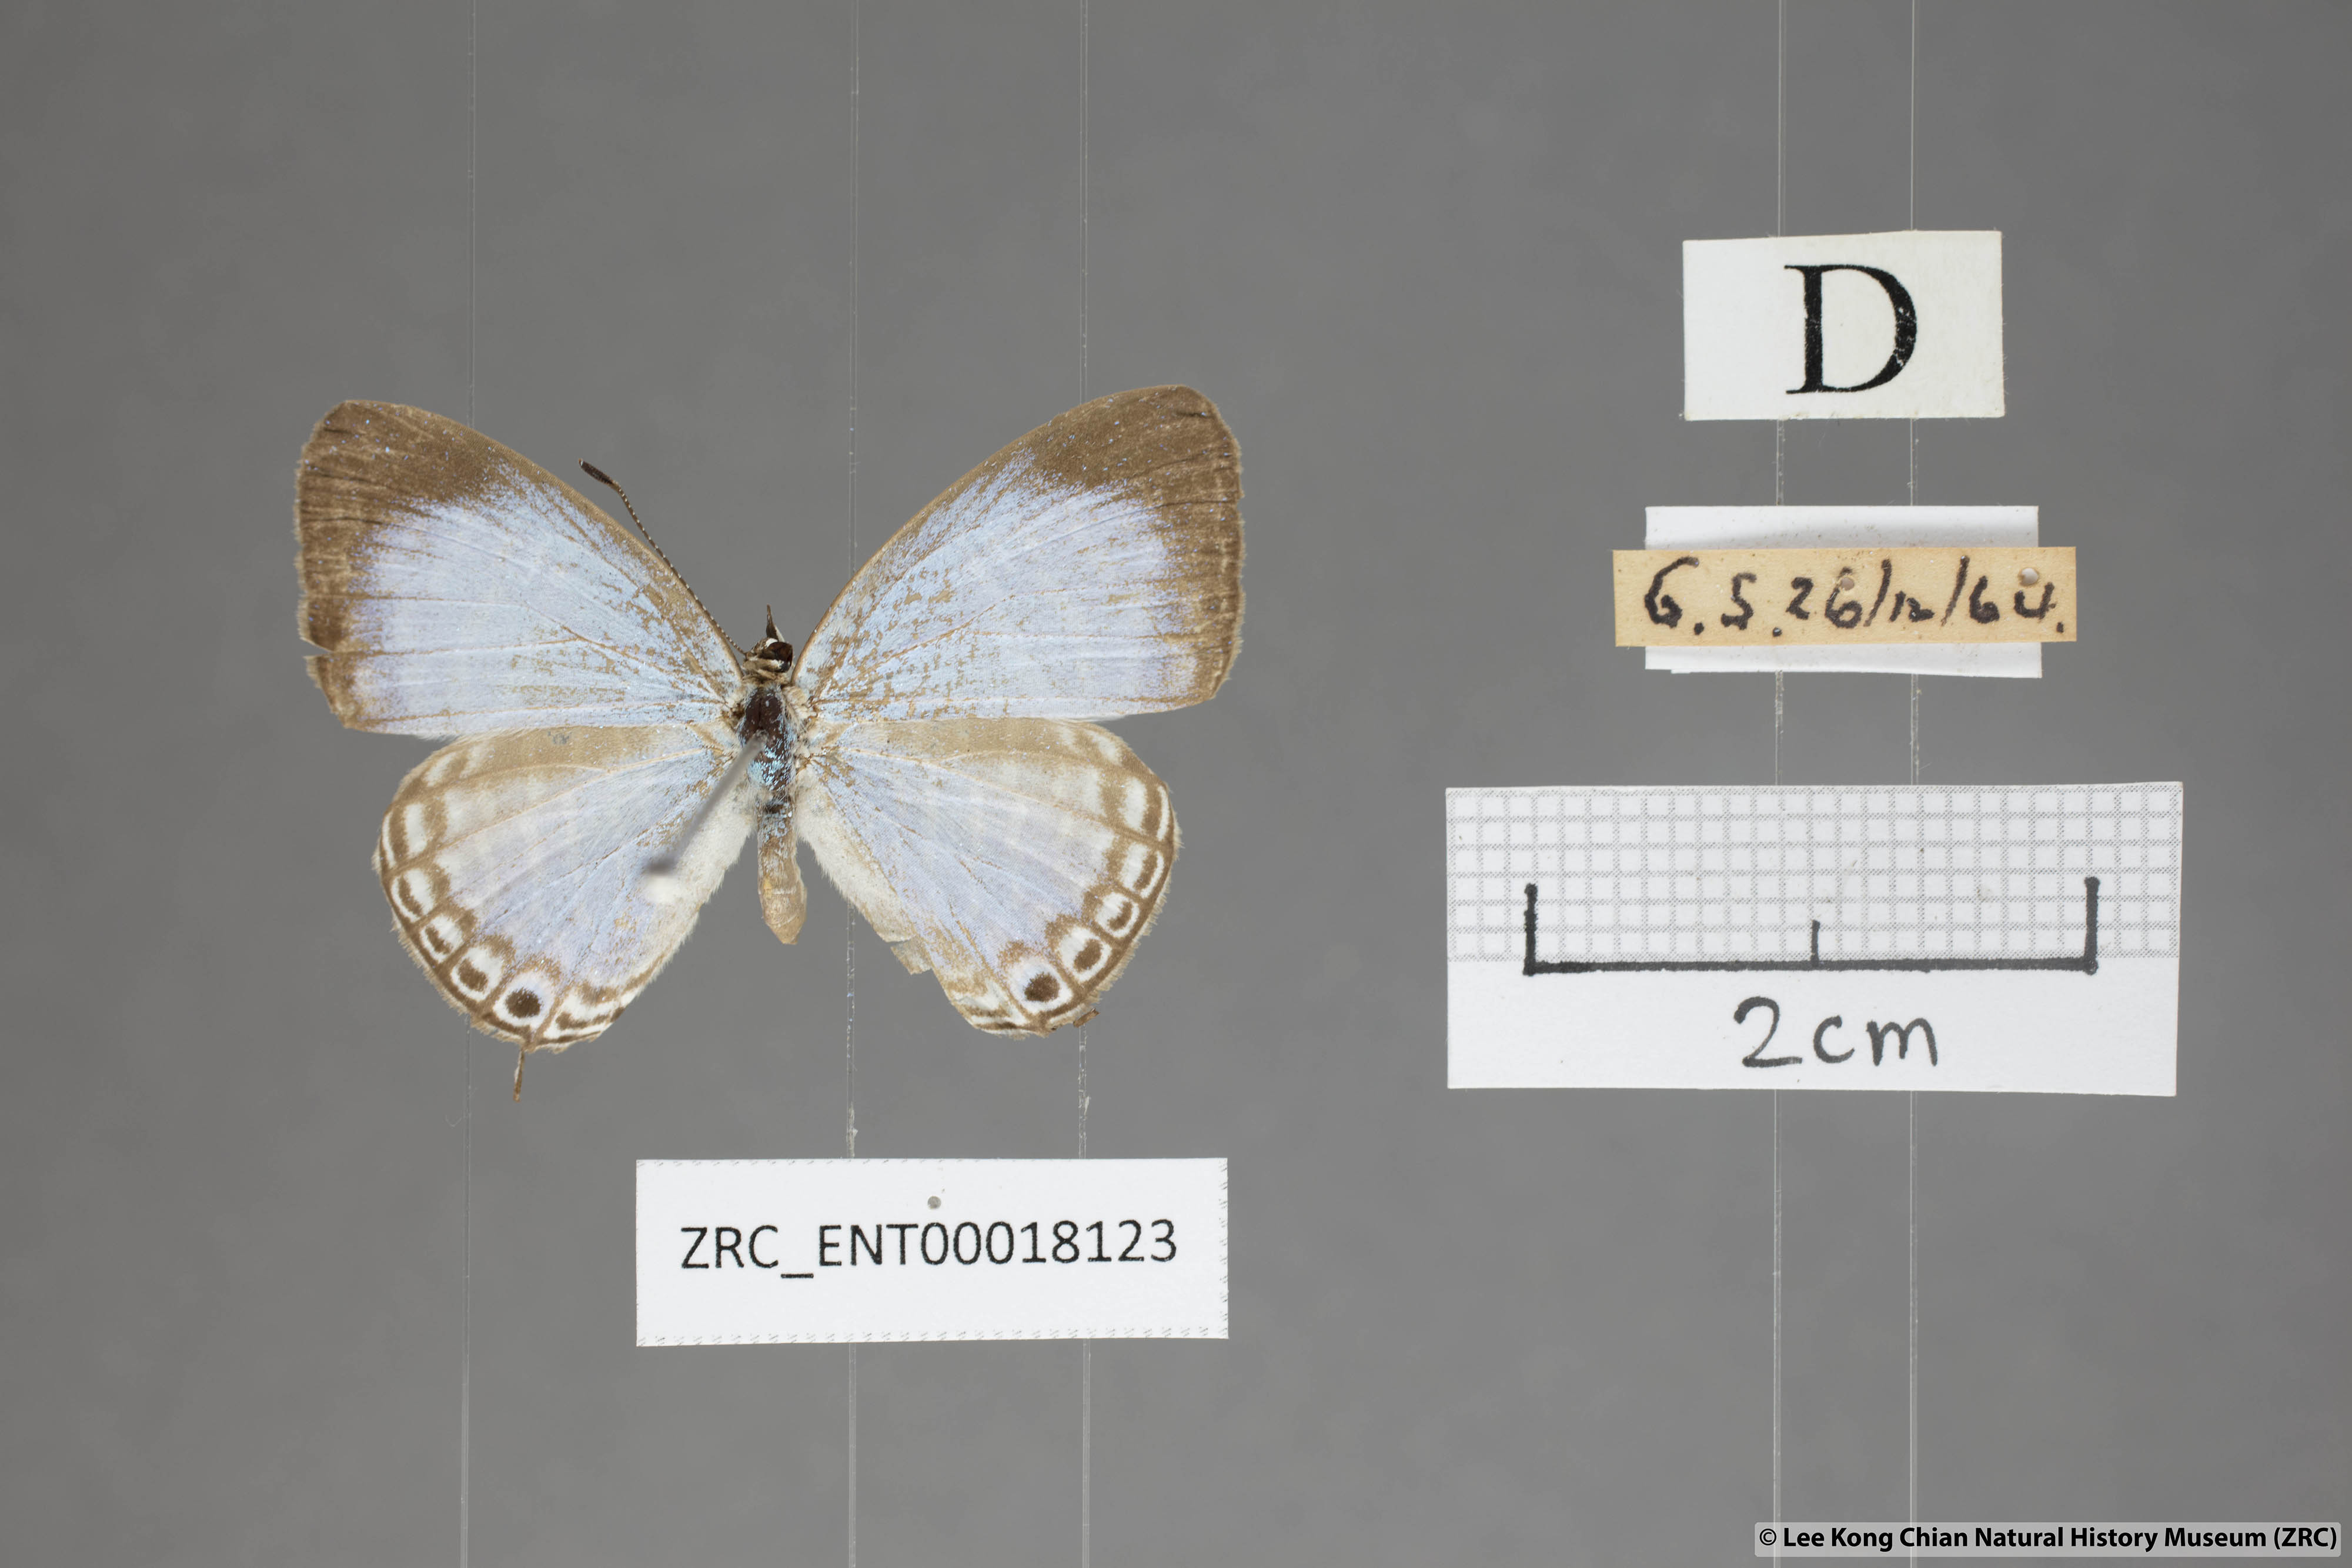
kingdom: Animalia
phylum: Arthropoda
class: Insecta
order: Lepidoptera
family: Lycaenidae
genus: Jamides
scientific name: Jamides elpis
